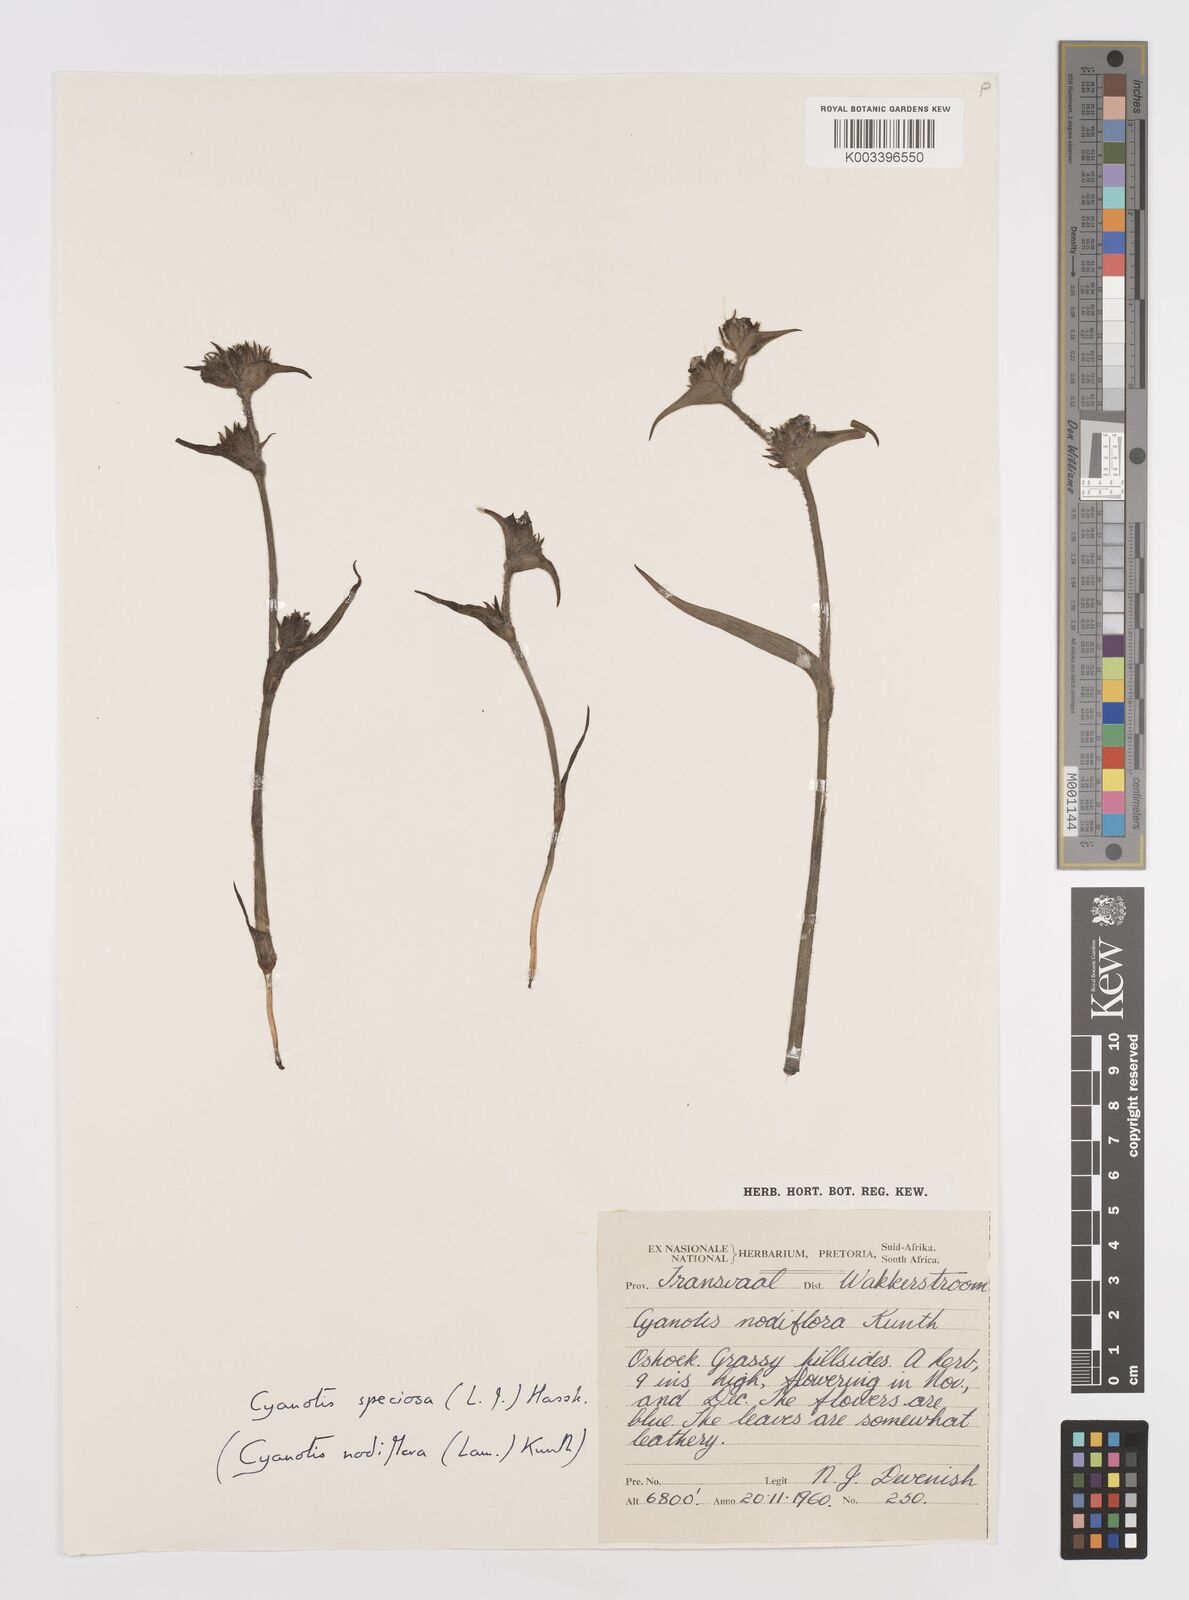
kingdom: Plantae
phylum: Tracheophyta
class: Liliopsida
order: Commelinales
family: Commelinaceae
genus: Cyanotis
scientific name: Cyanotis speciosa
